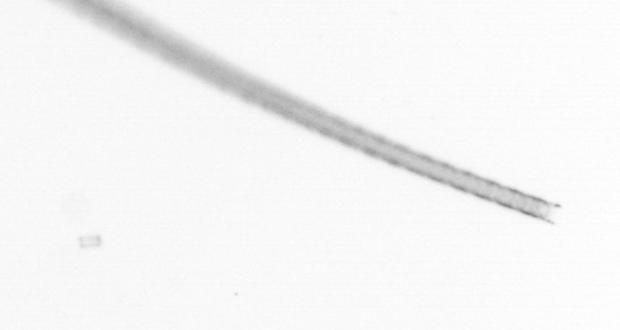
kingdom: Chromista
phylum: Ochrophyta
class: Bacillariophyceae
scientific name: Bacillariophyceae
